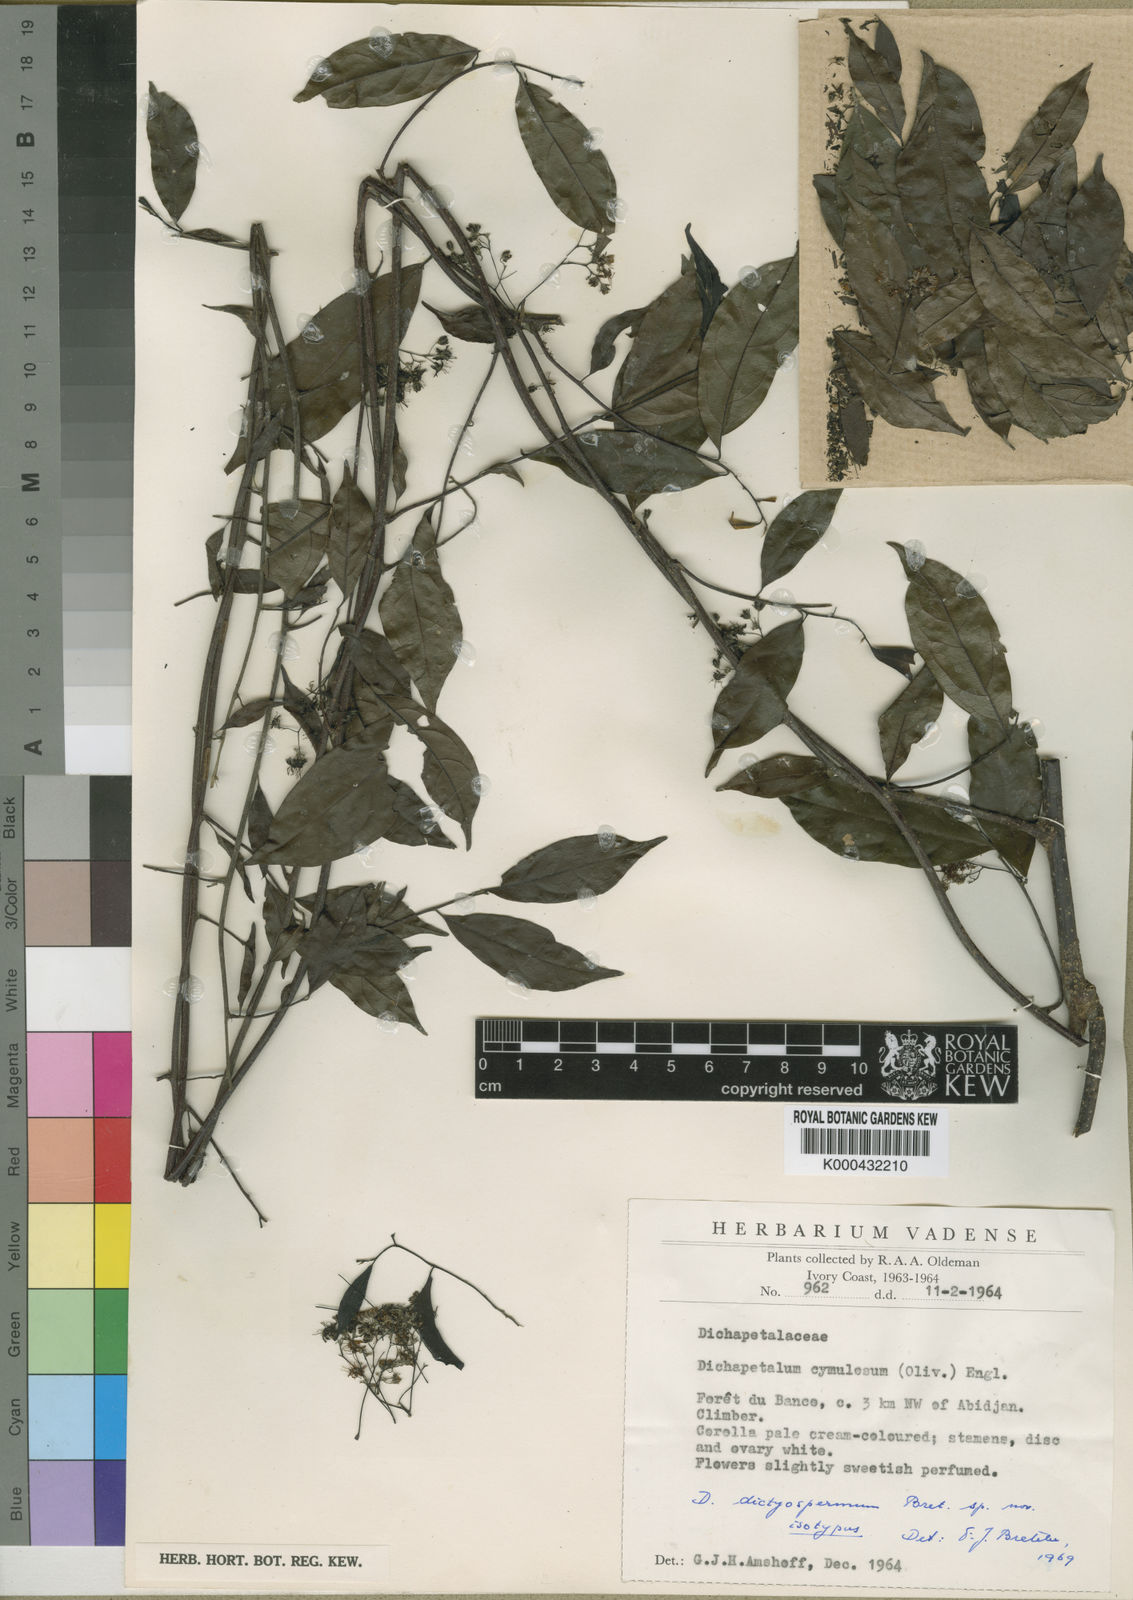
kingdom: Plantae
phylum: Tracheophyta
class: Magnoliopsida
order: Malpighiales
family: Dichapetalaceae
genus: Dichapetalum
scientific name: Dichapetalum dictyospermum
